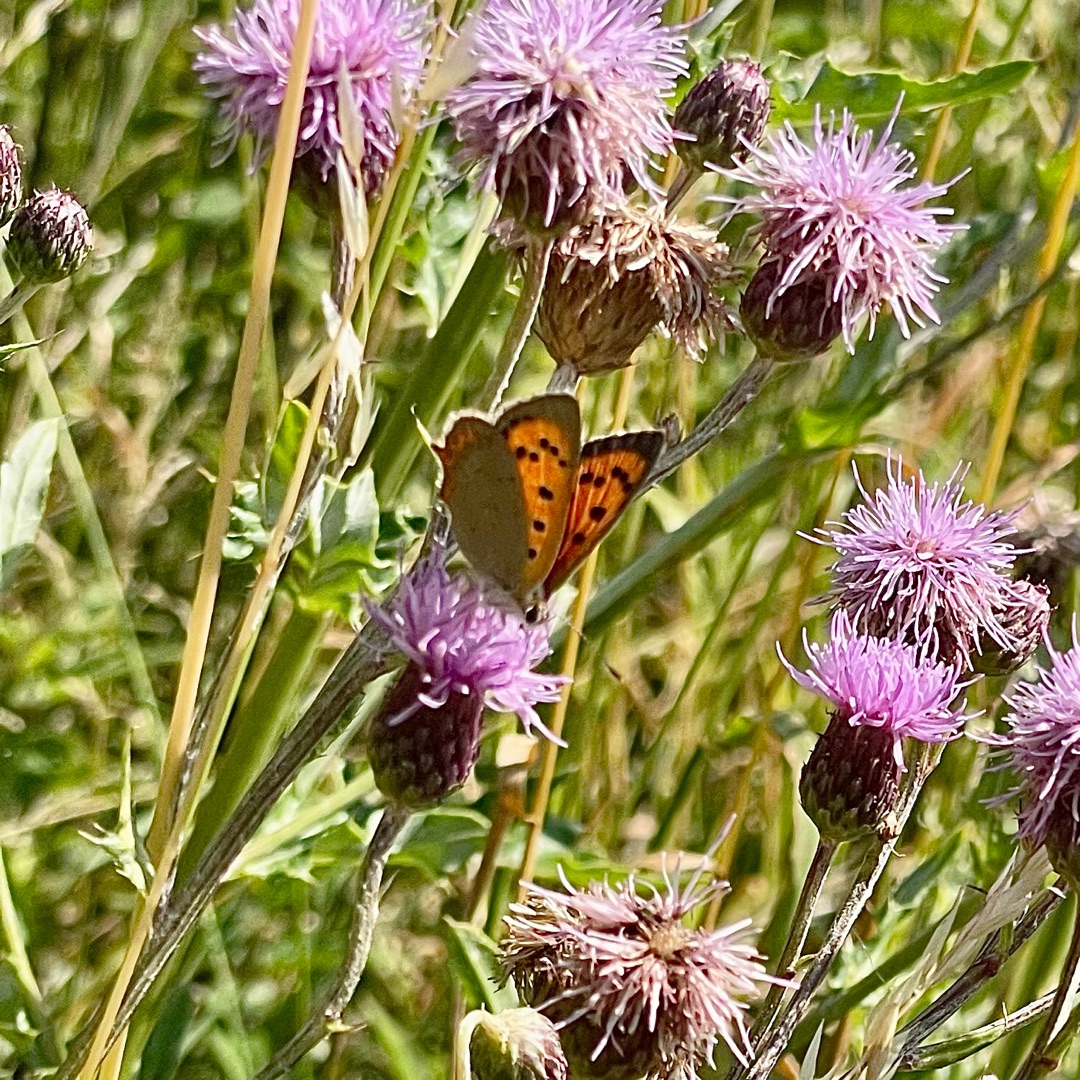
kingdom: Animalia
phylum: Arthropoda
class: Insecta
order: Lepidoptera
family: Lycaenidae
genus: Lycaena
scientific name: Lycaena phlaeas
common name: Lille ildfugl
